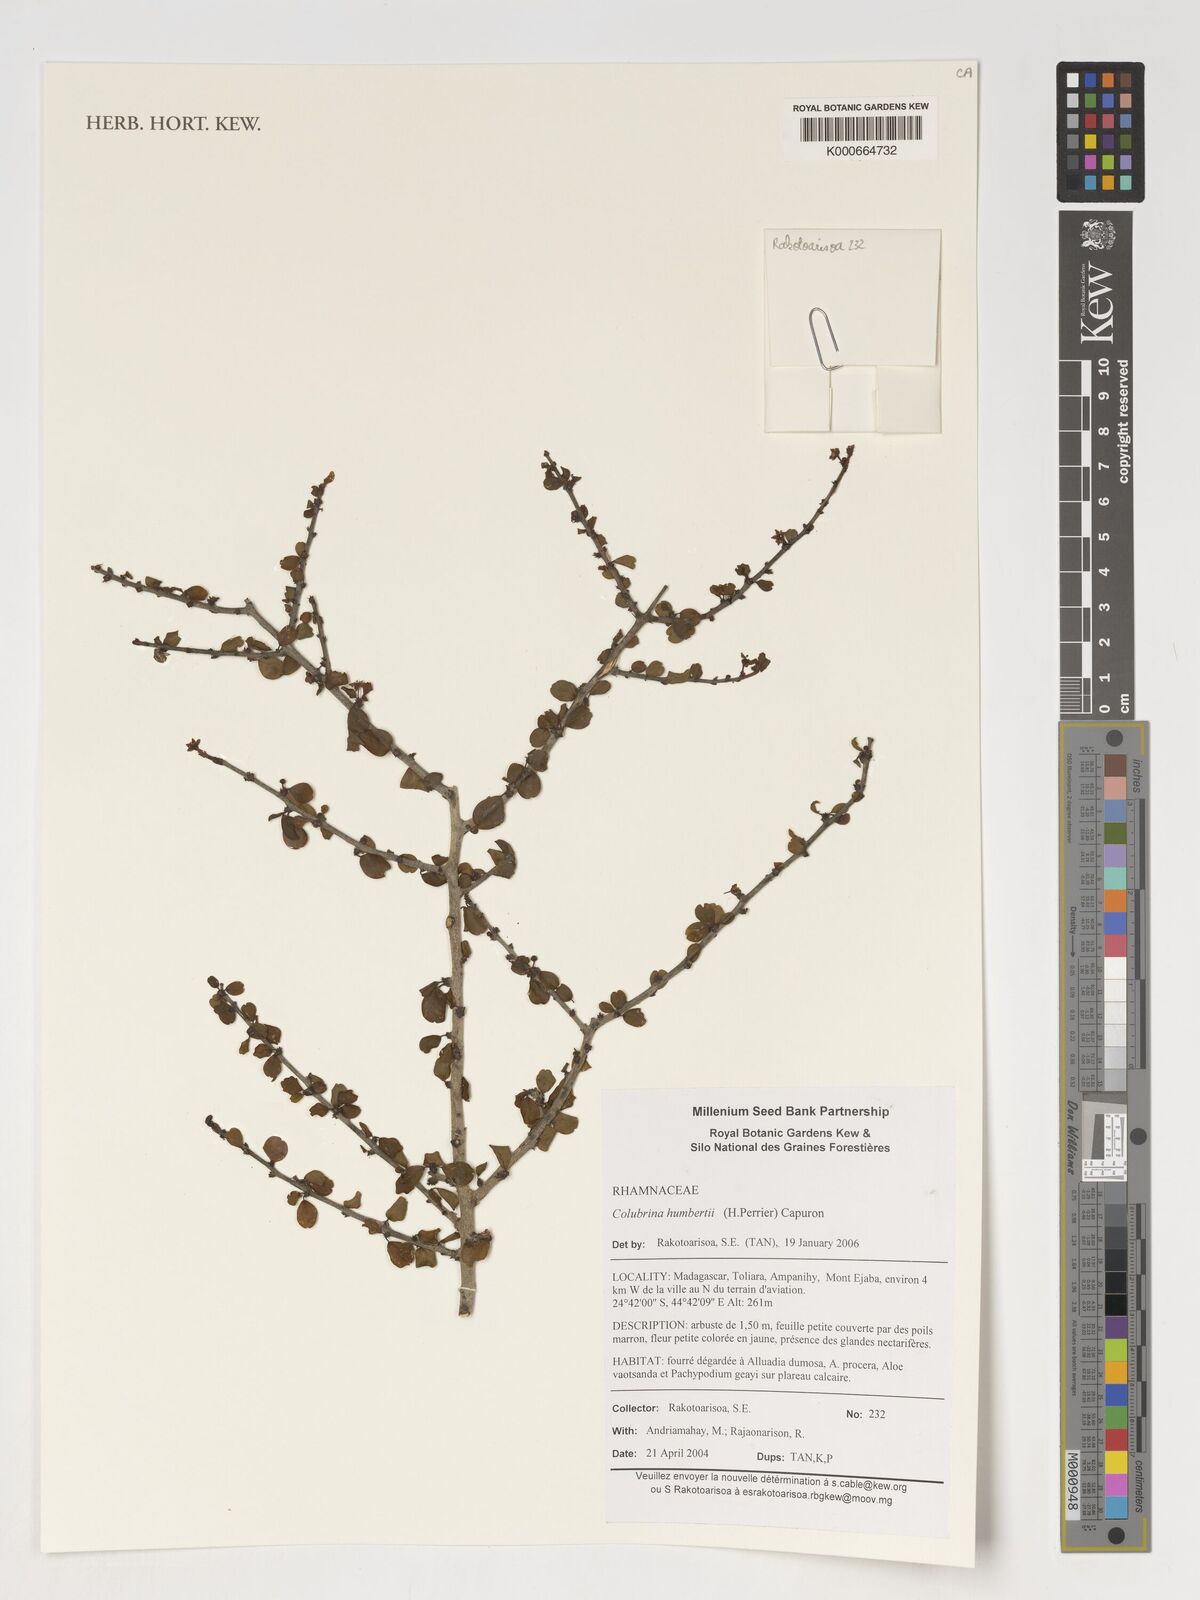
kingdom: Plantae
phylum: Tracheophyta
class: Magnoliopsida
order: Rosales
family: Rhamnaceae
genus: Colubrina
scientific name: Colubrina humbertii
